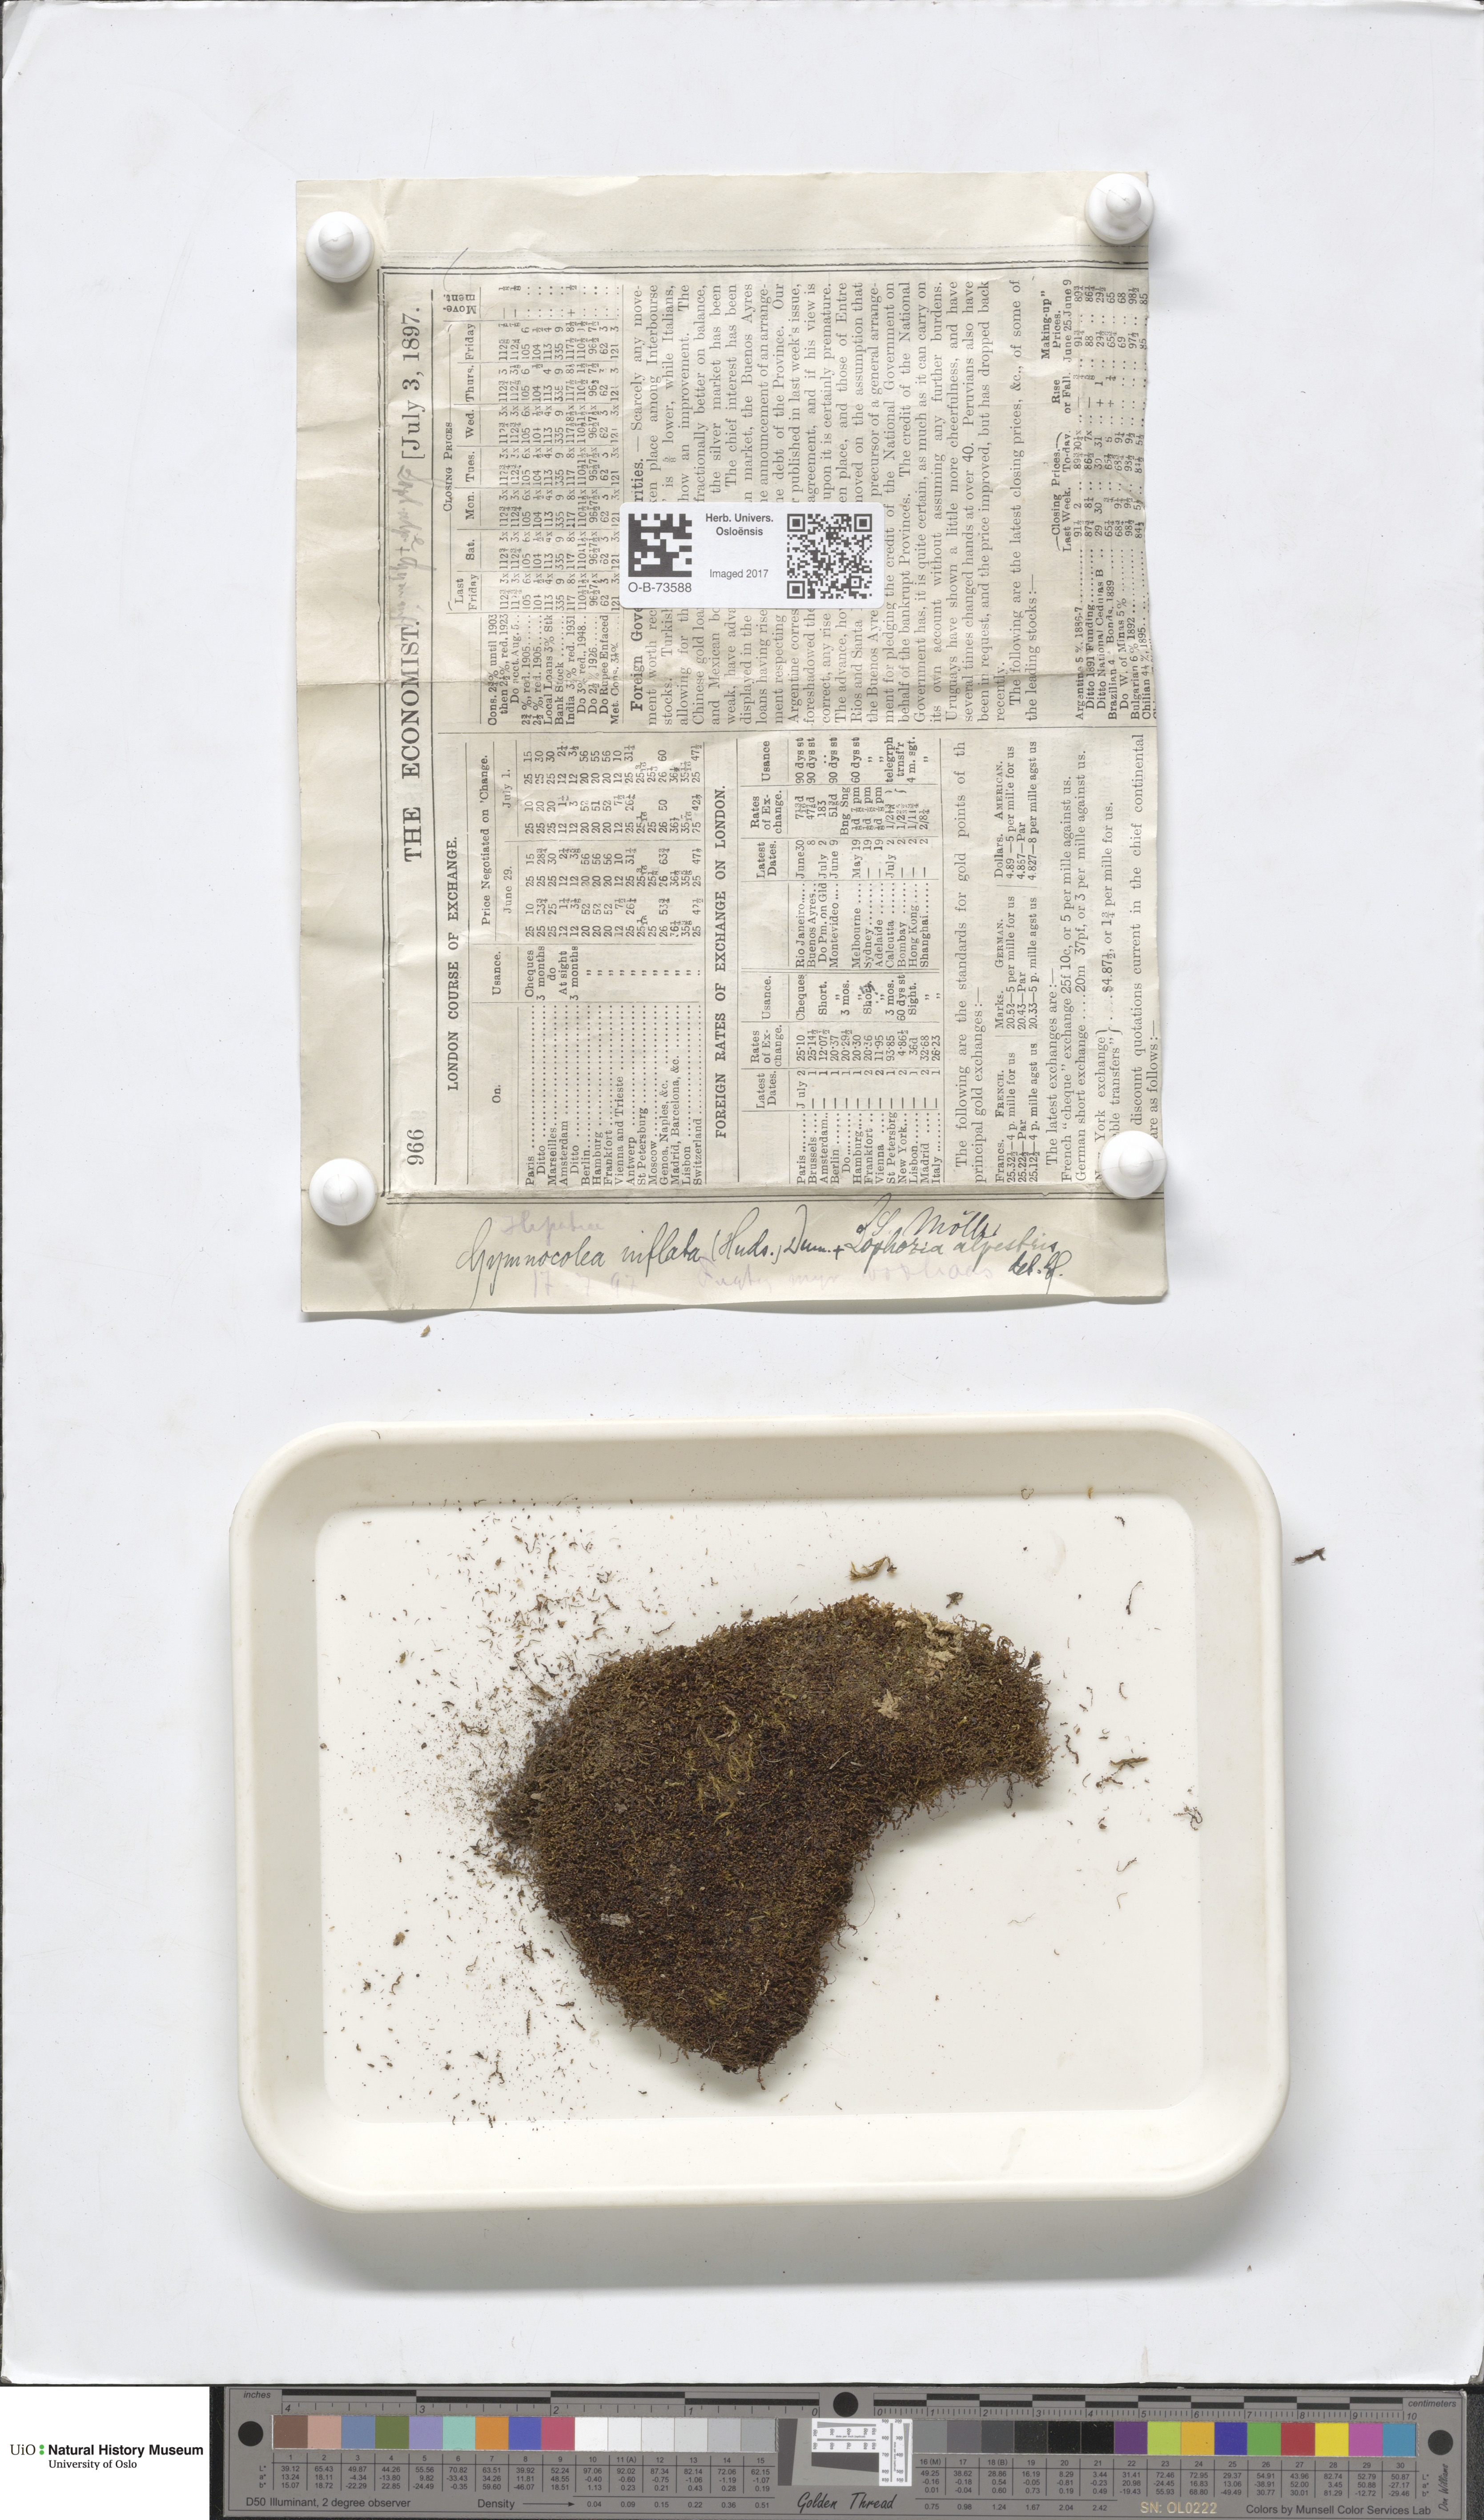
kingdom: Plantae
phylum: Marchantiophyta
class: Jungermanniopsida
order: Jungermanniales
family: Anastrophyllaceae
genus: Gymnocolea
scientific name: Gymnocolea inflata
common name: Inflated notchwort
